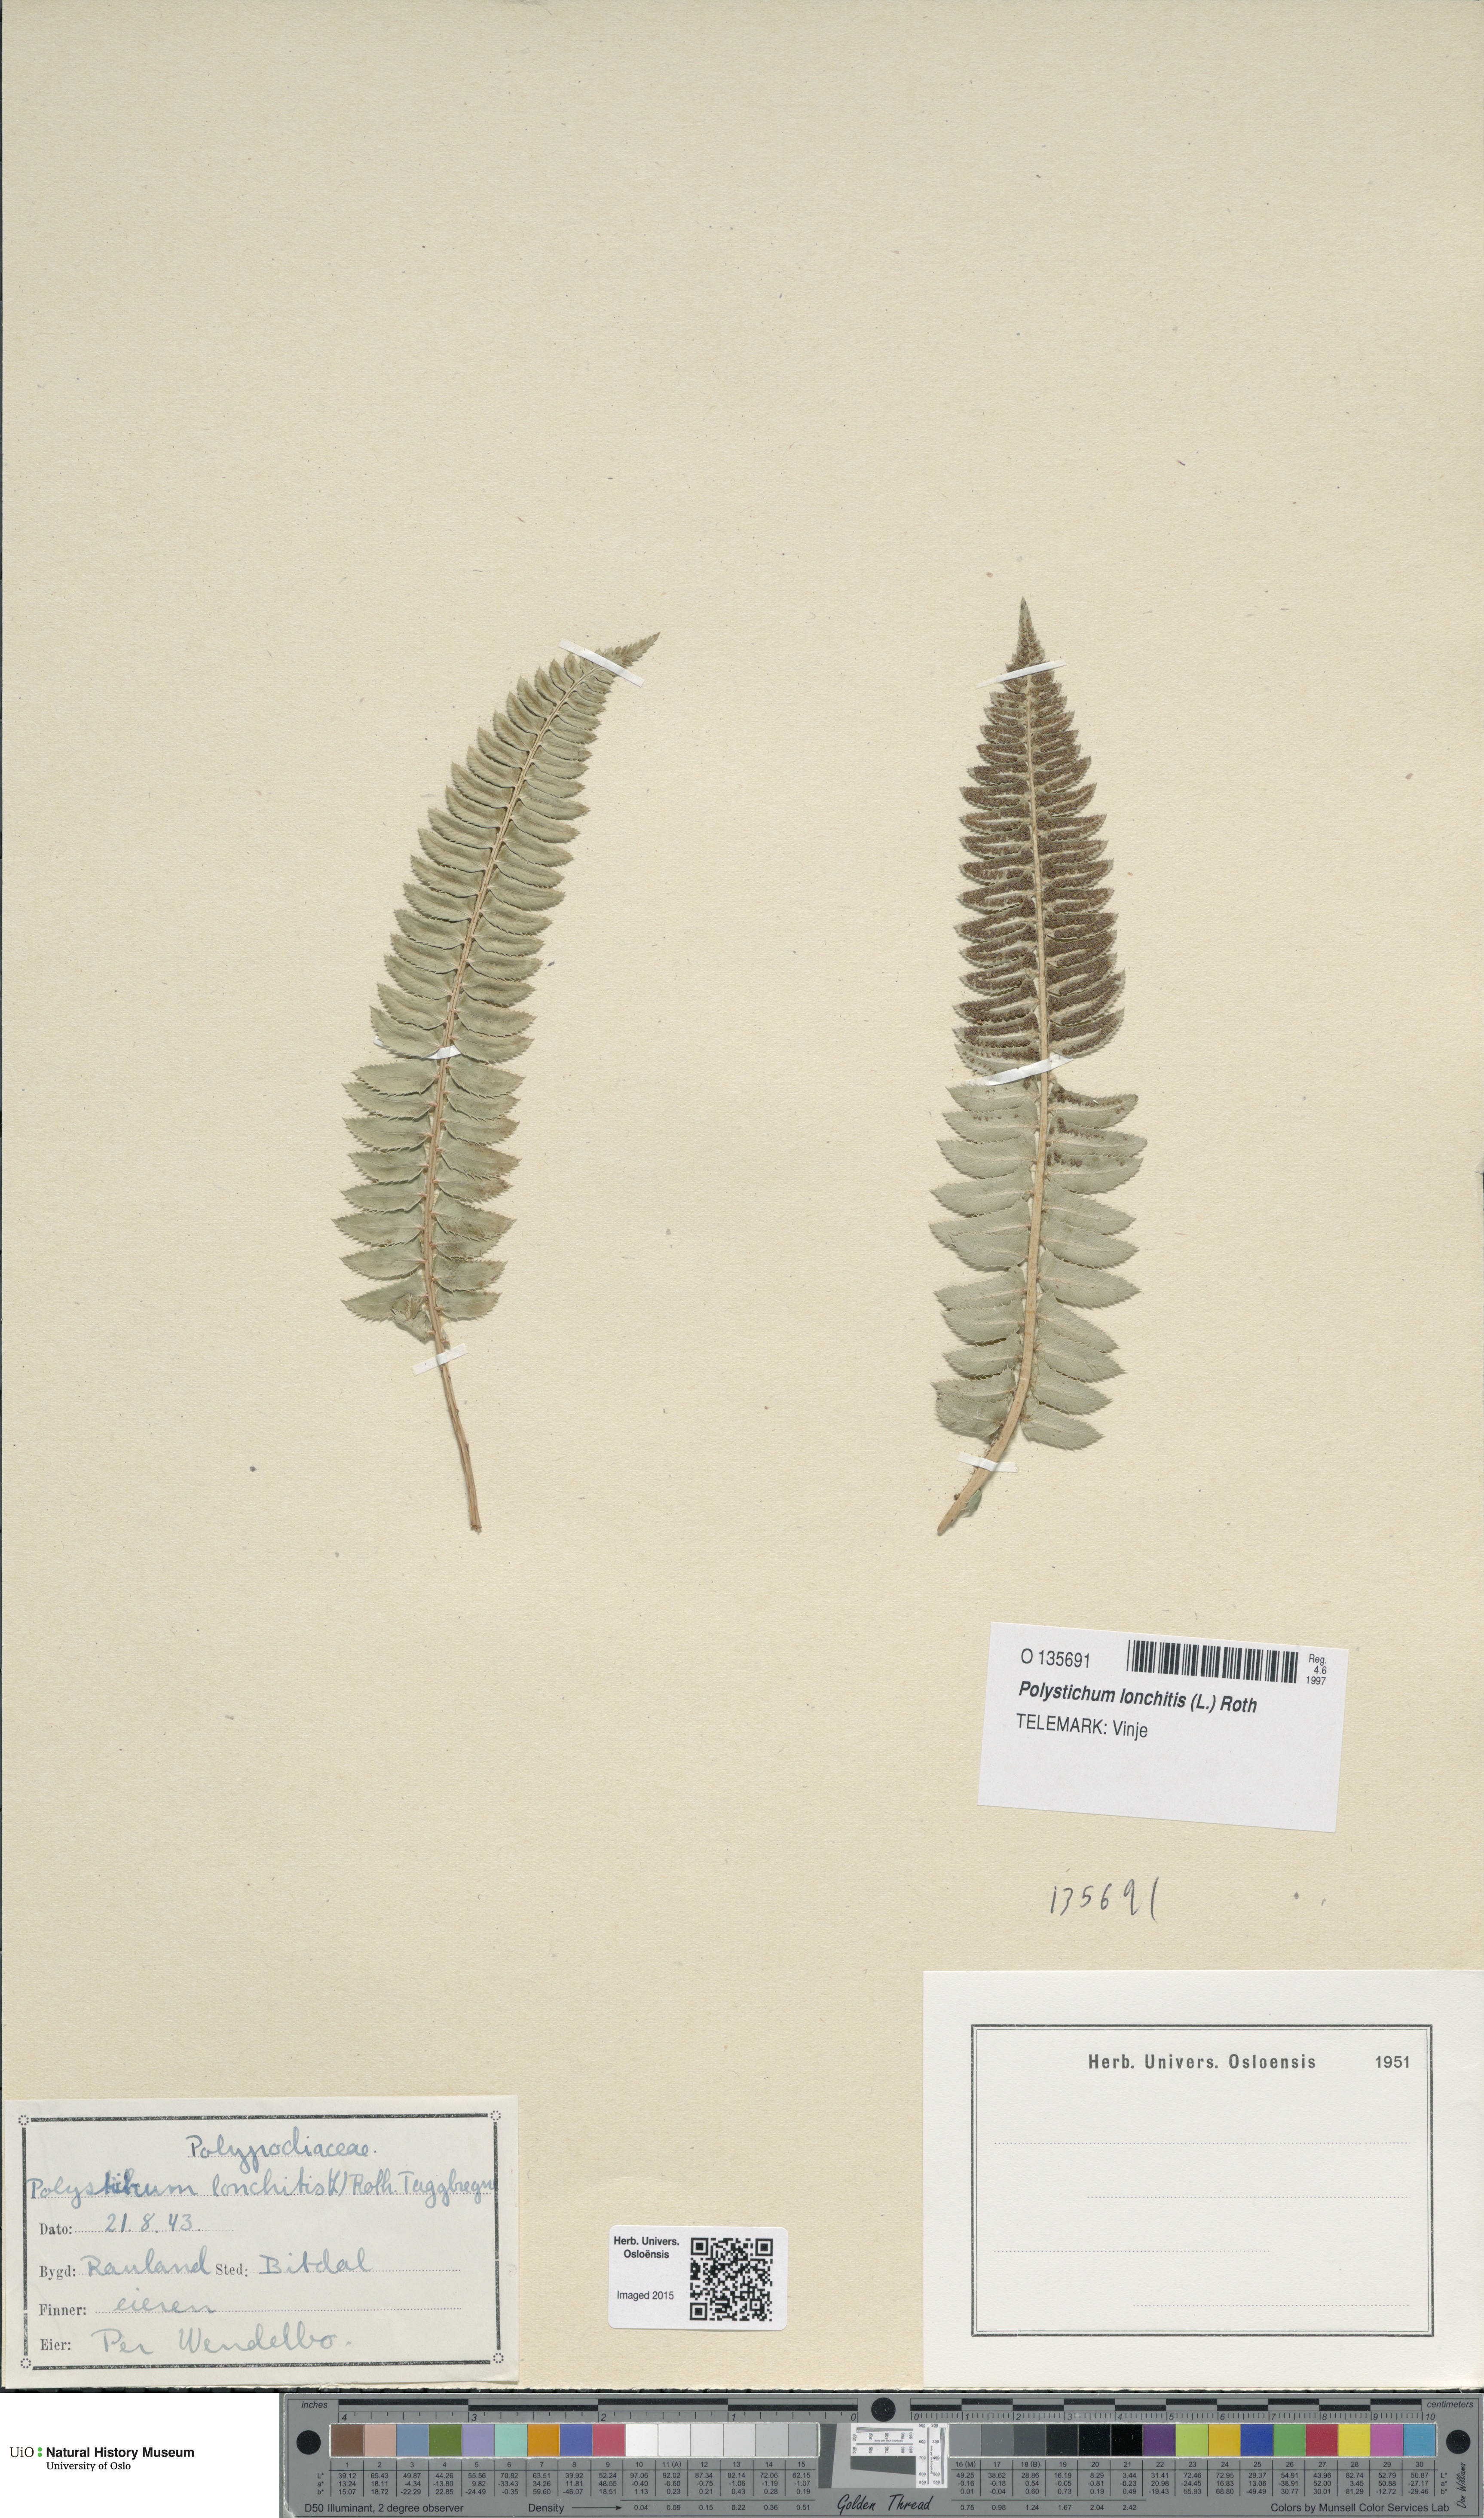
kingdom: Plantae
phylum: Tracheophyta
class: Polypodiopsida
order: Polypodiales
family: Dryopteridaceae
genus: Polystichum
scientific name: Polystichum lonchitis
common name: Holly fern
